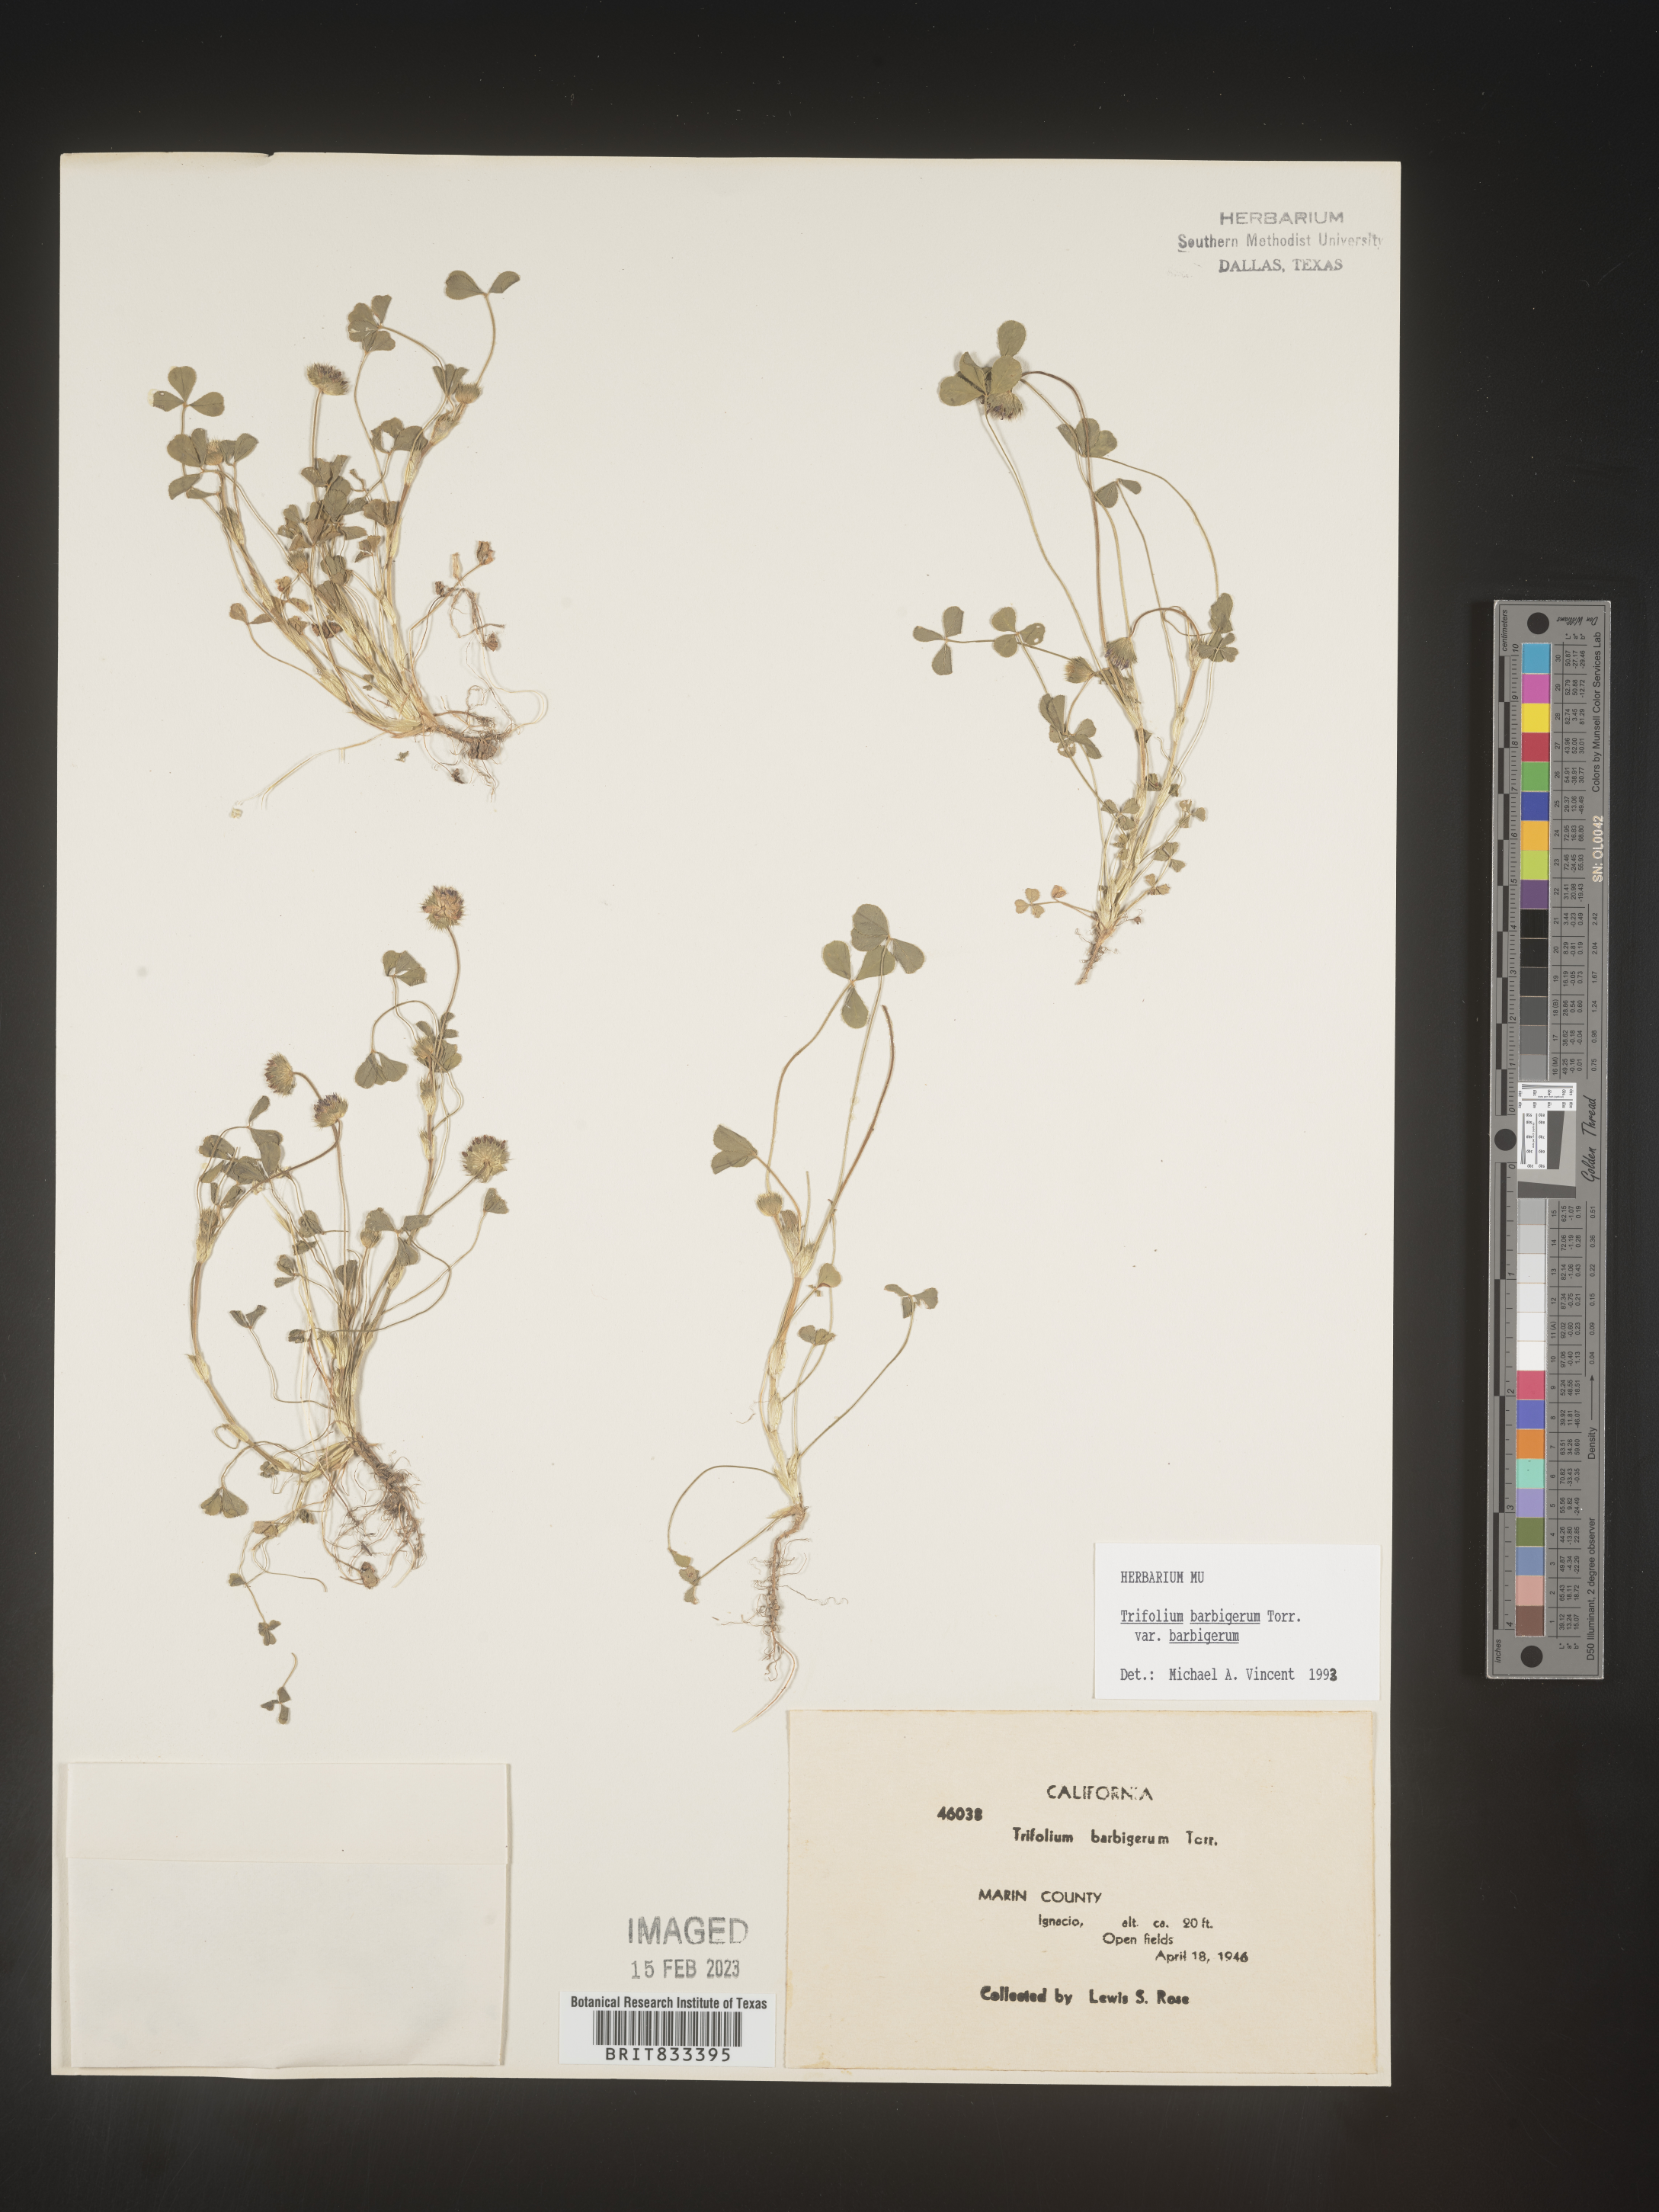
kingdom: Plantae
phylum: Tracheophyta
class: Magnoliopsida
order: Fabales
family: Fabaceae
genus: Trifolium
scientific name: Trifolium
